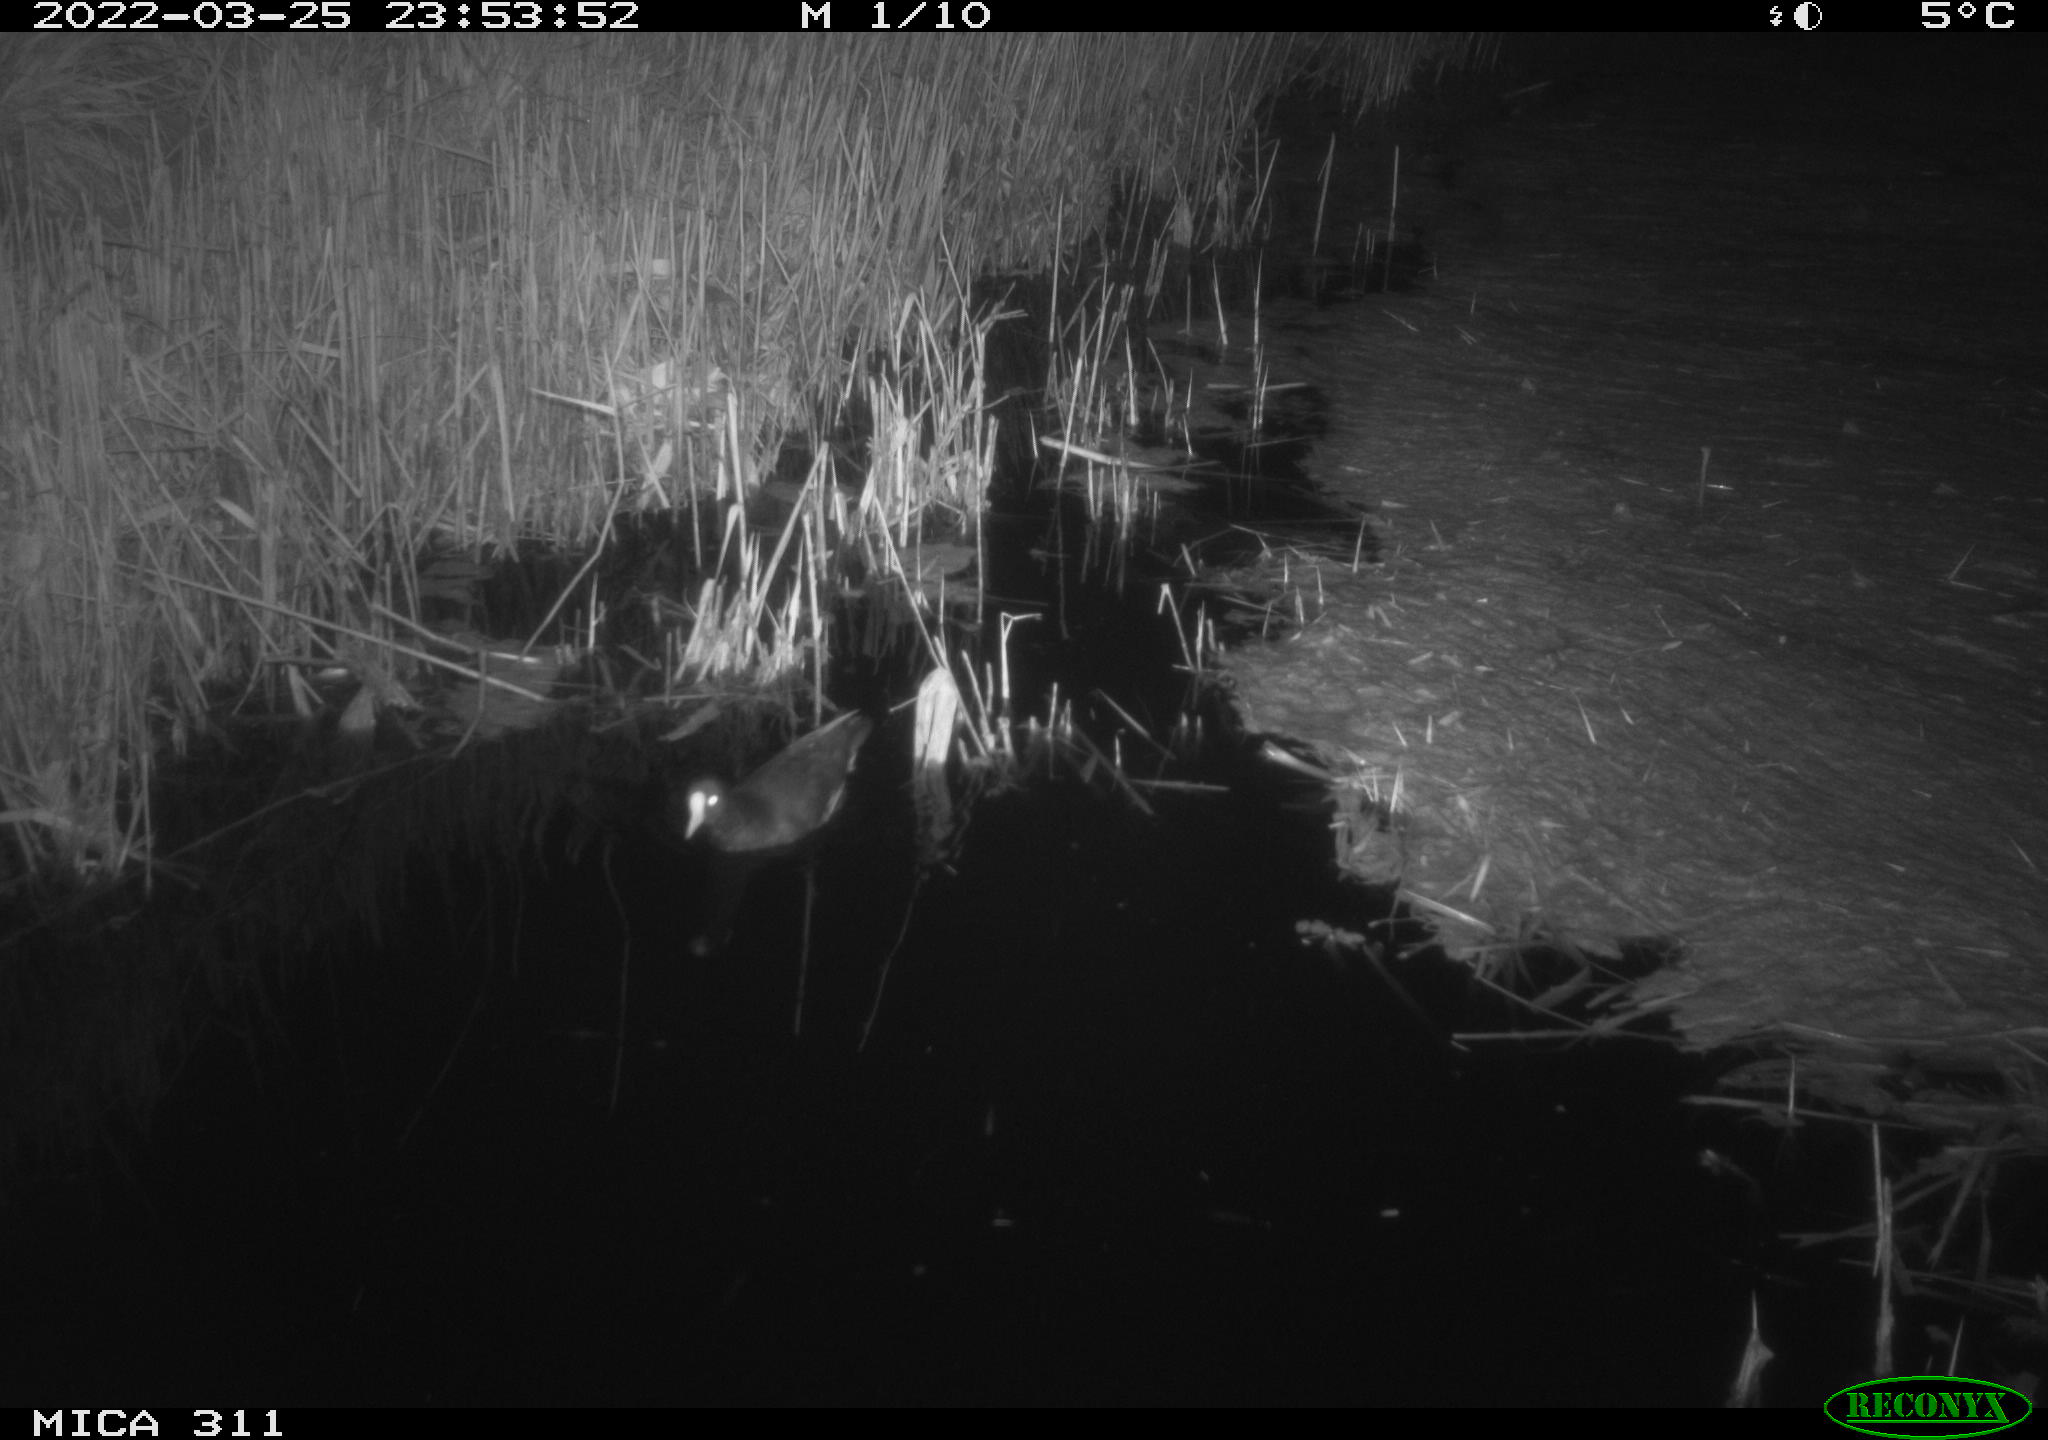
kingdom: Animalia
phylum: Chordata
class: Aves
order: Gruiformes
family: Rallidae
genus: Gallinula
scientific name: Gallinula chloropus
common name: Common moorhen
